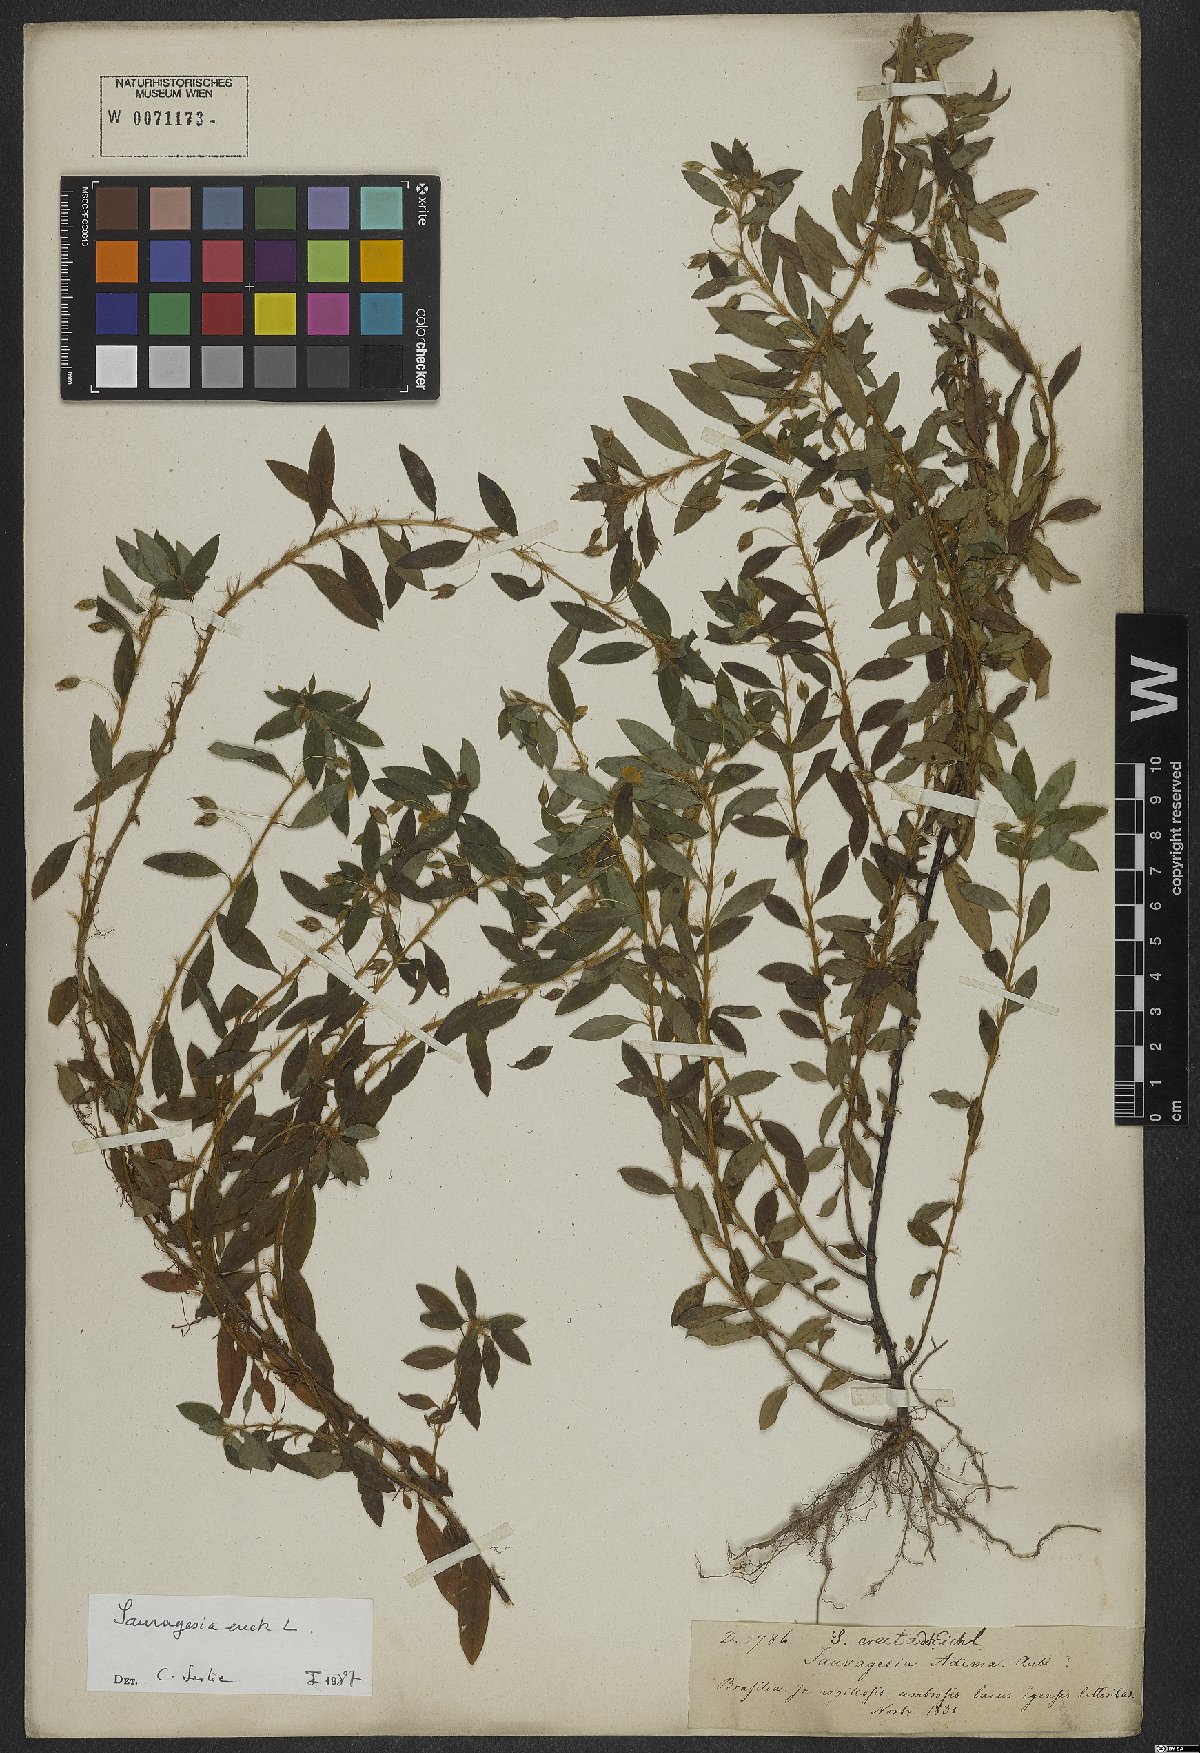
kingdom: Plantae
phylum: Tracheophyta
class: Magnoliopsida
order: Malpighiales
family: Ochnaceae
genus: Sauvagesia
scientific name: Sauvagesia erecta
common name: Creole tea
